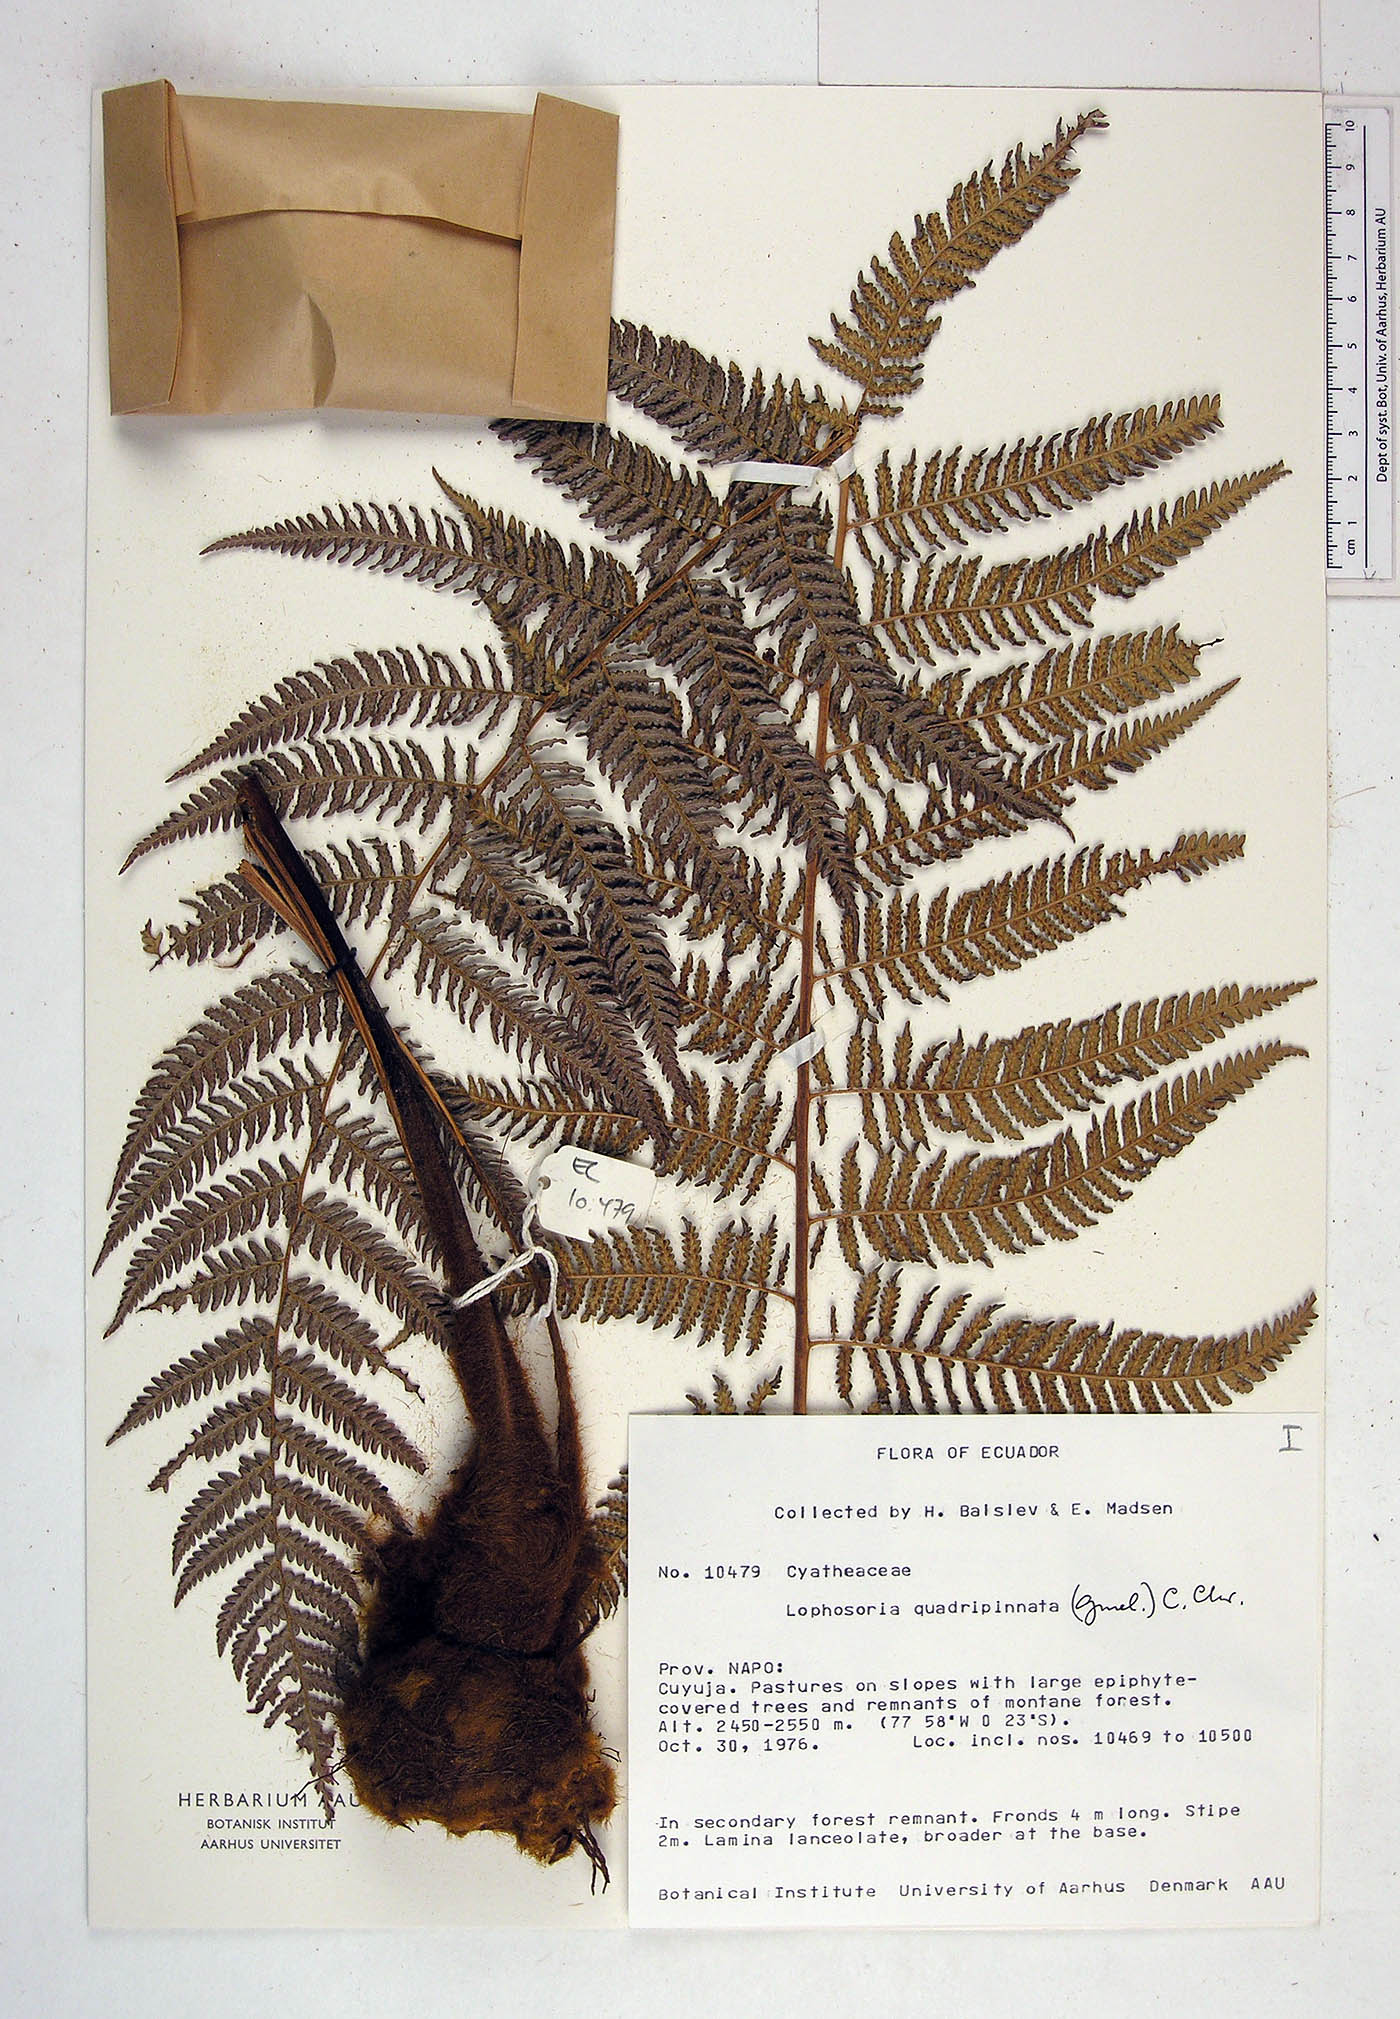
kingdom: Plantae
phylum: Tracheophyta
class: Polypodiopsida
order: Cyatheales
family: Dicksoniaceae
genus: Lophosoria
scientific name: Lophosoria quadripinnata
